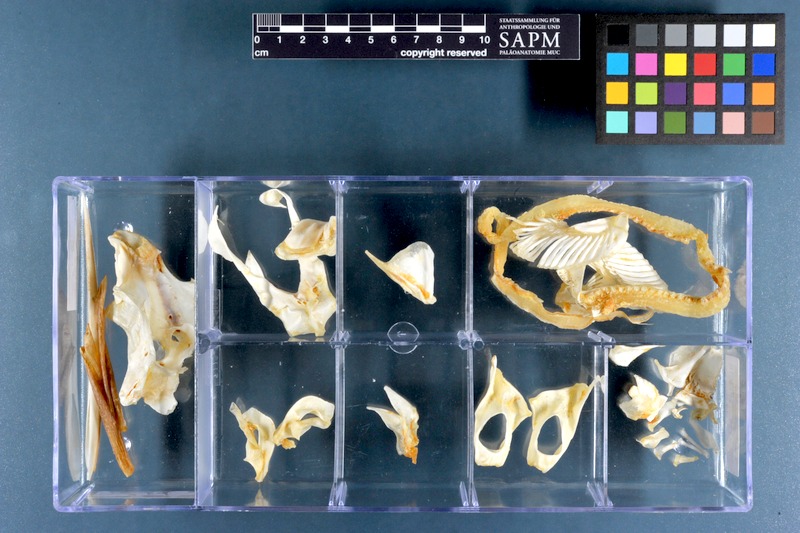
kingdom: Animalia
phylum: Chordata
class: Holocephali
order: Chimaeriformes
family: Callorhinchidae
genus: Callorhinchus
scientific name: Callorhinchus capensis
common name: Cape elephantfish
